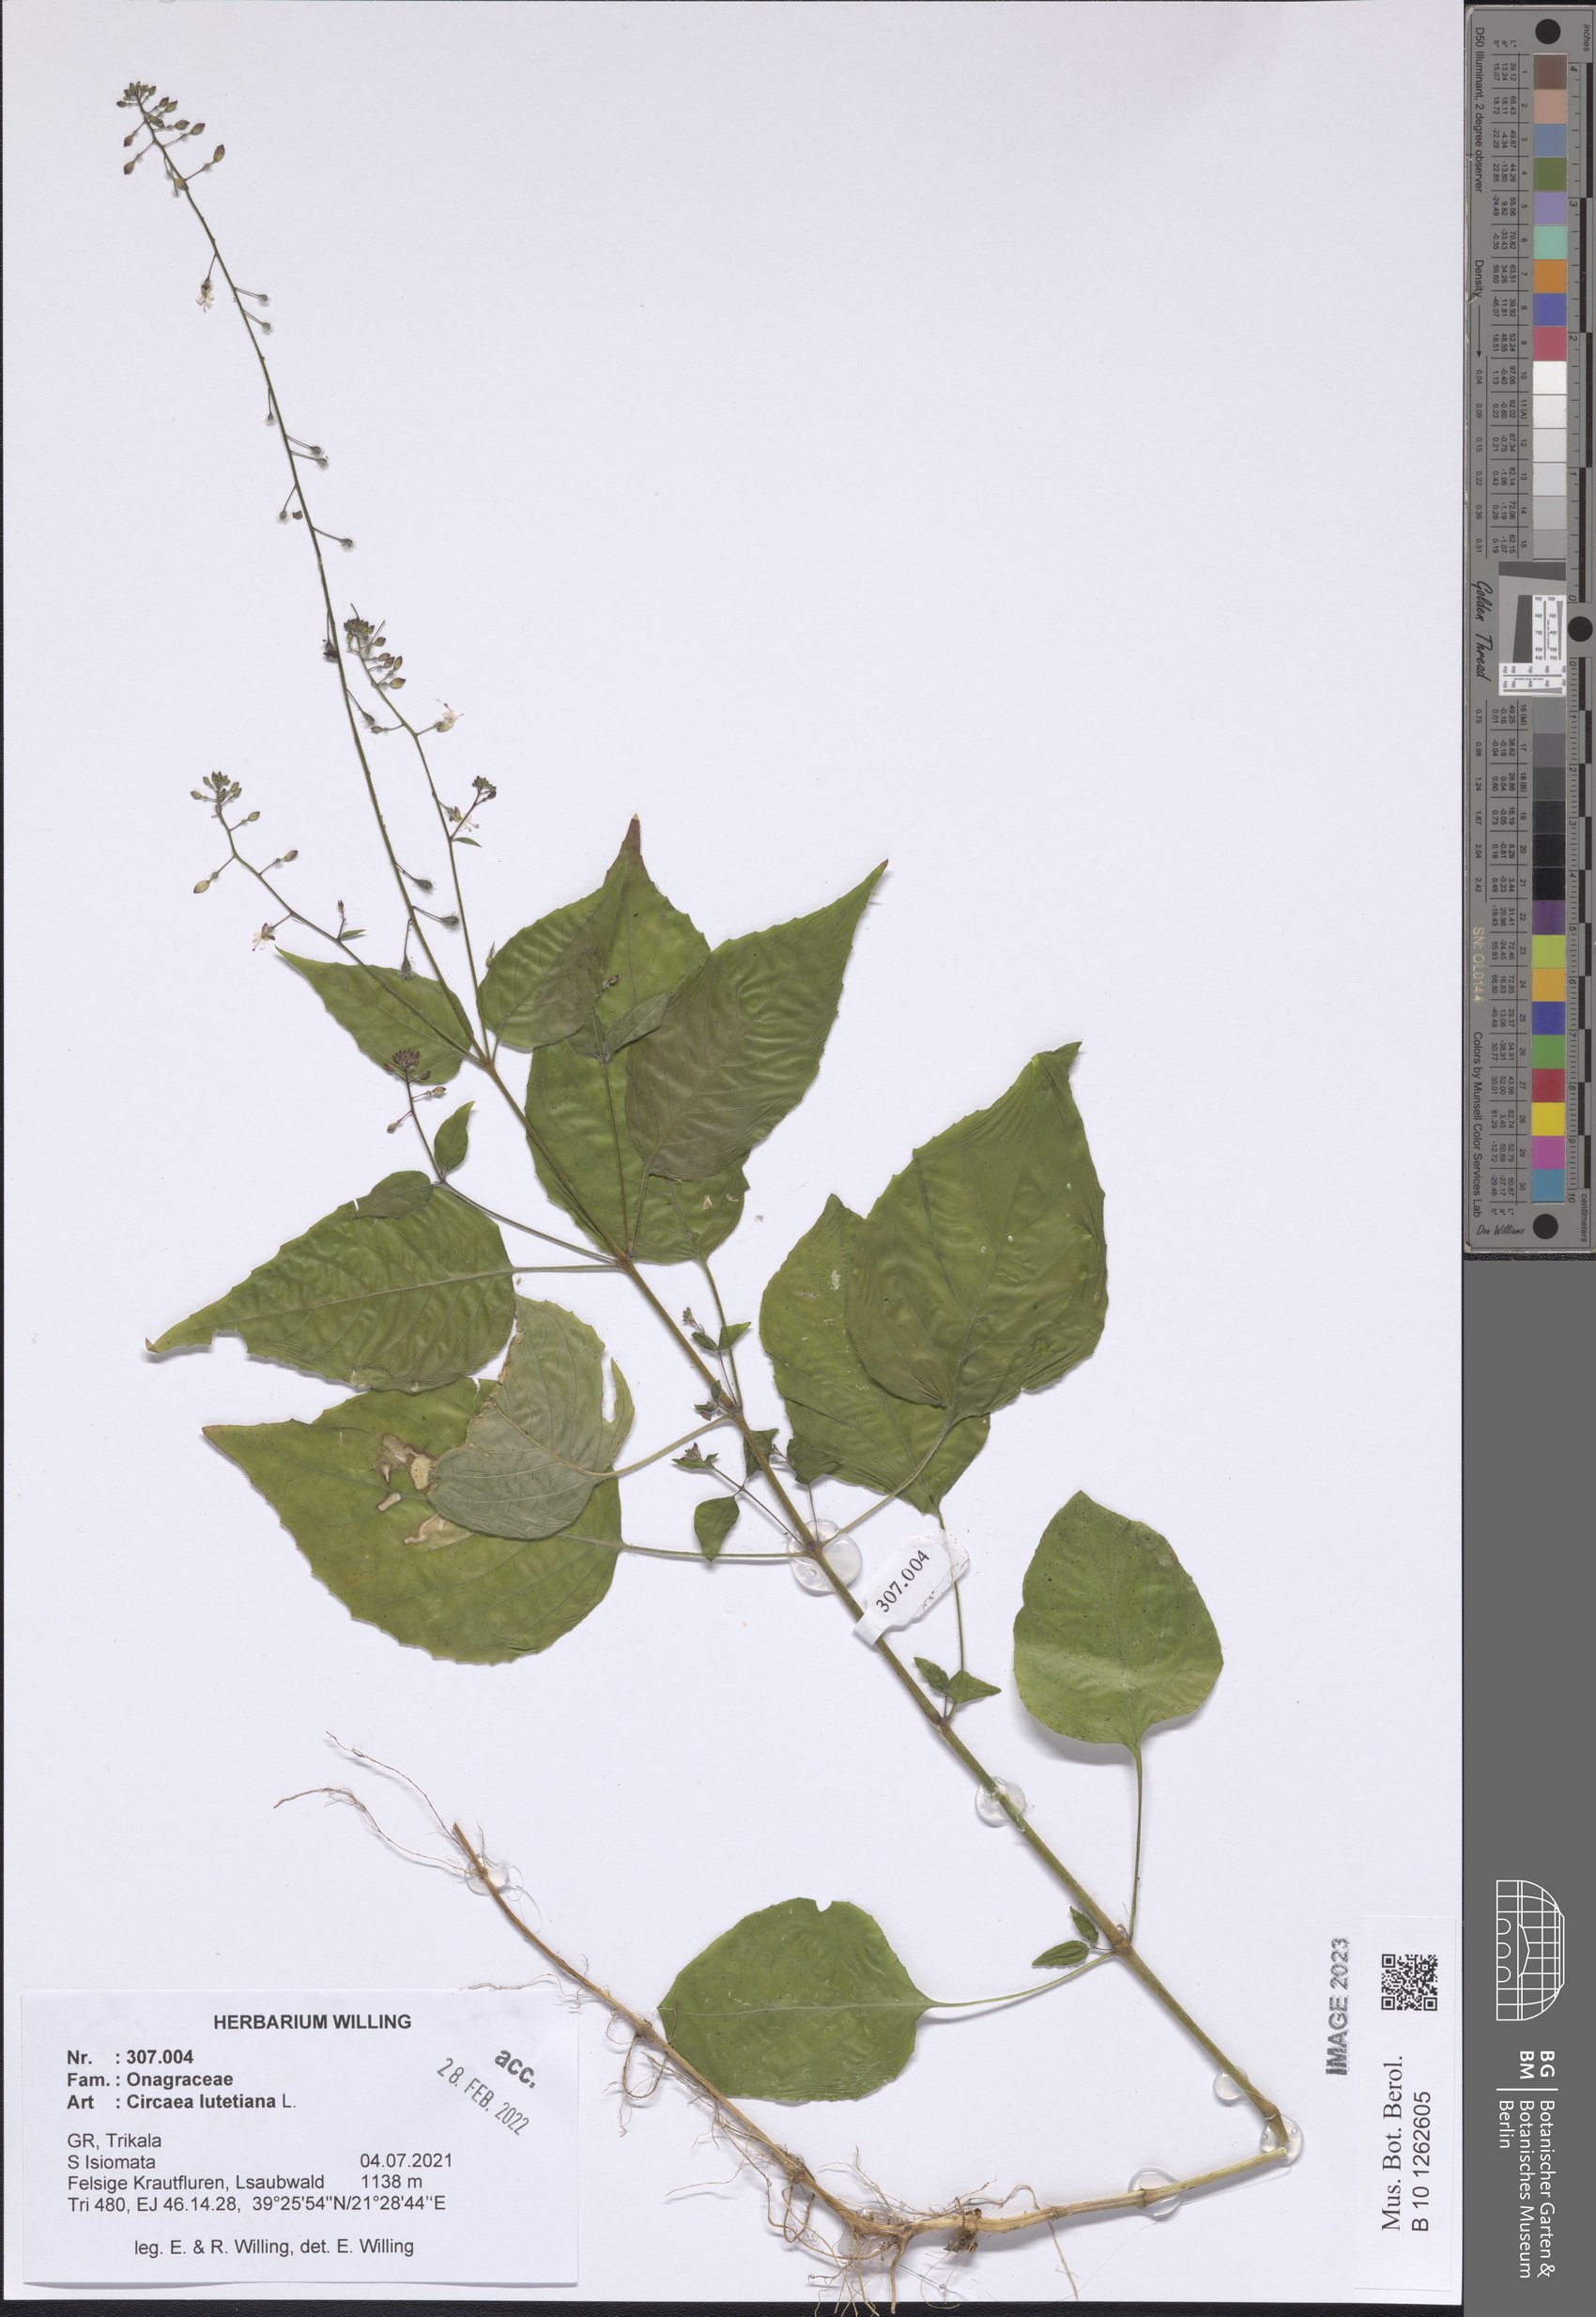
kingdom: Plantae
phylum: Tracheophyta
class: Magnoliopsida
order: Myrtales
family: Onagraceae
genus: Circaea
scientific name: Circaea lutetiana
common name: Enchanter's-nightshade
